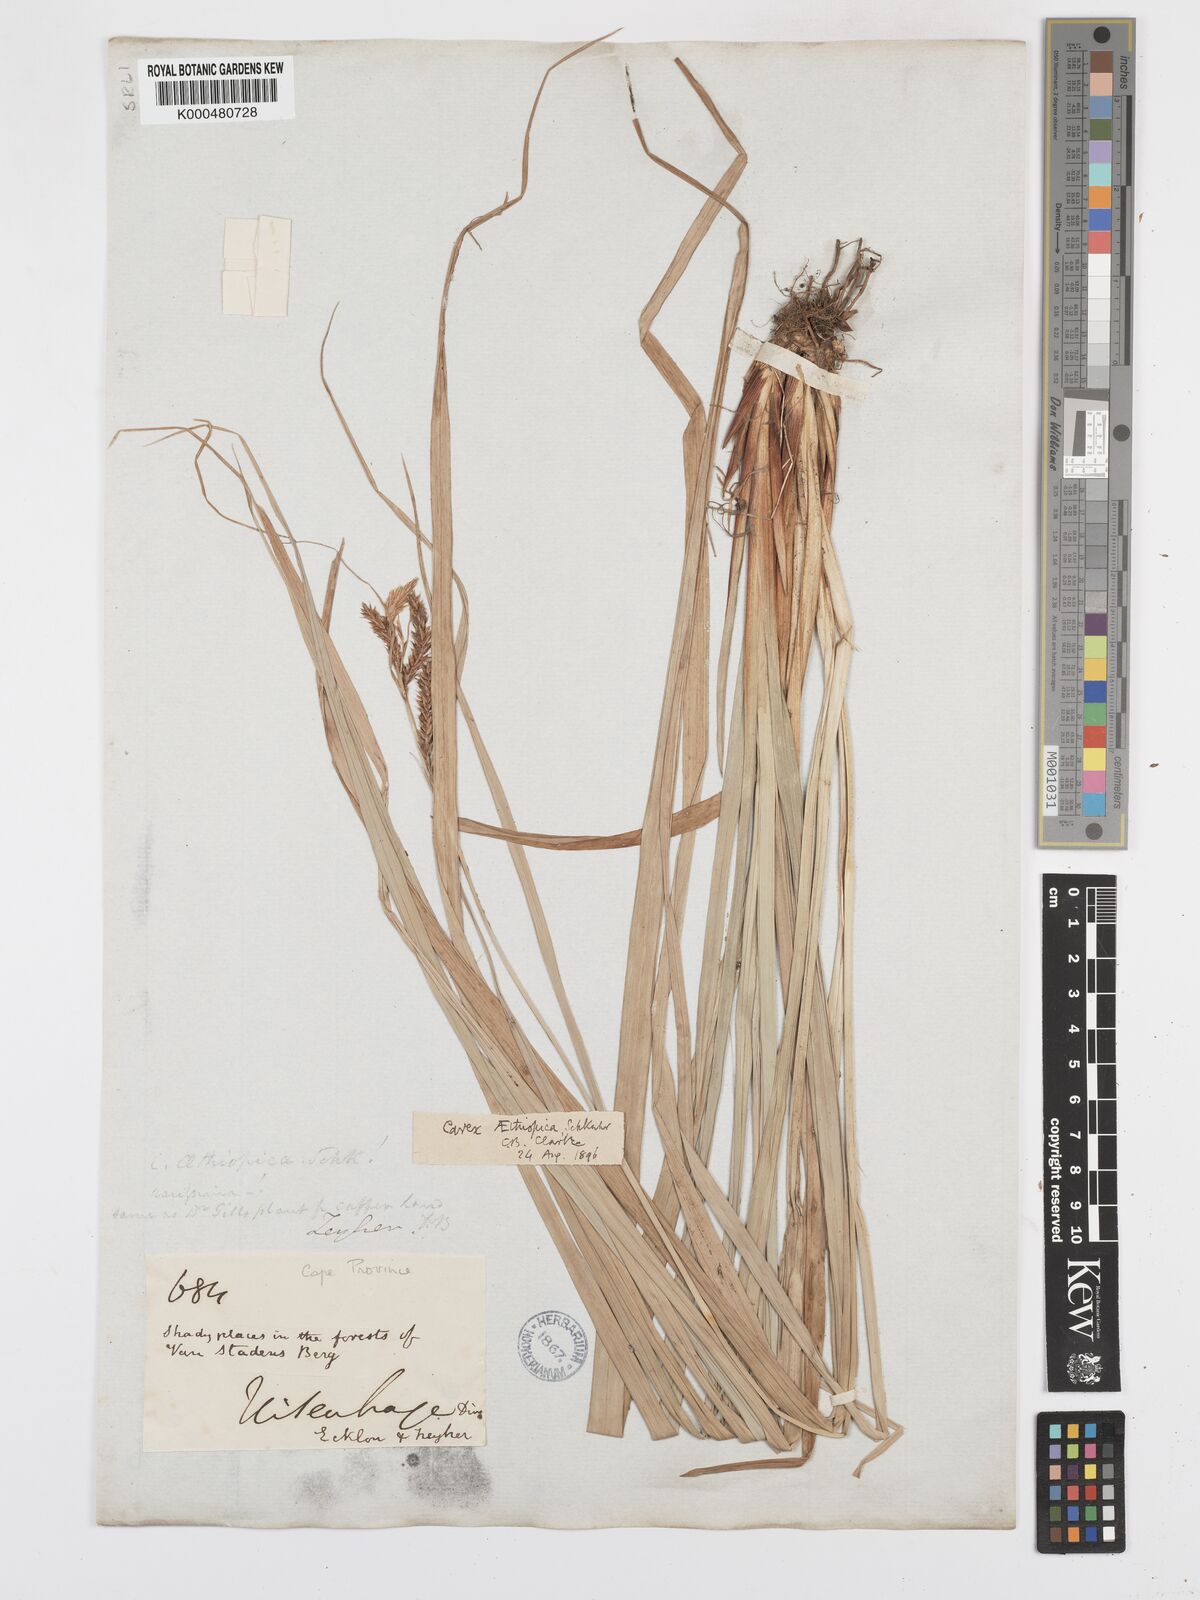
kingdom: Plantae
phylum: Tracheophyta
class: Liliopsida
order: Poales
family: Cyperaceae
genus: Carex
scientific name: Carex aethiopica
